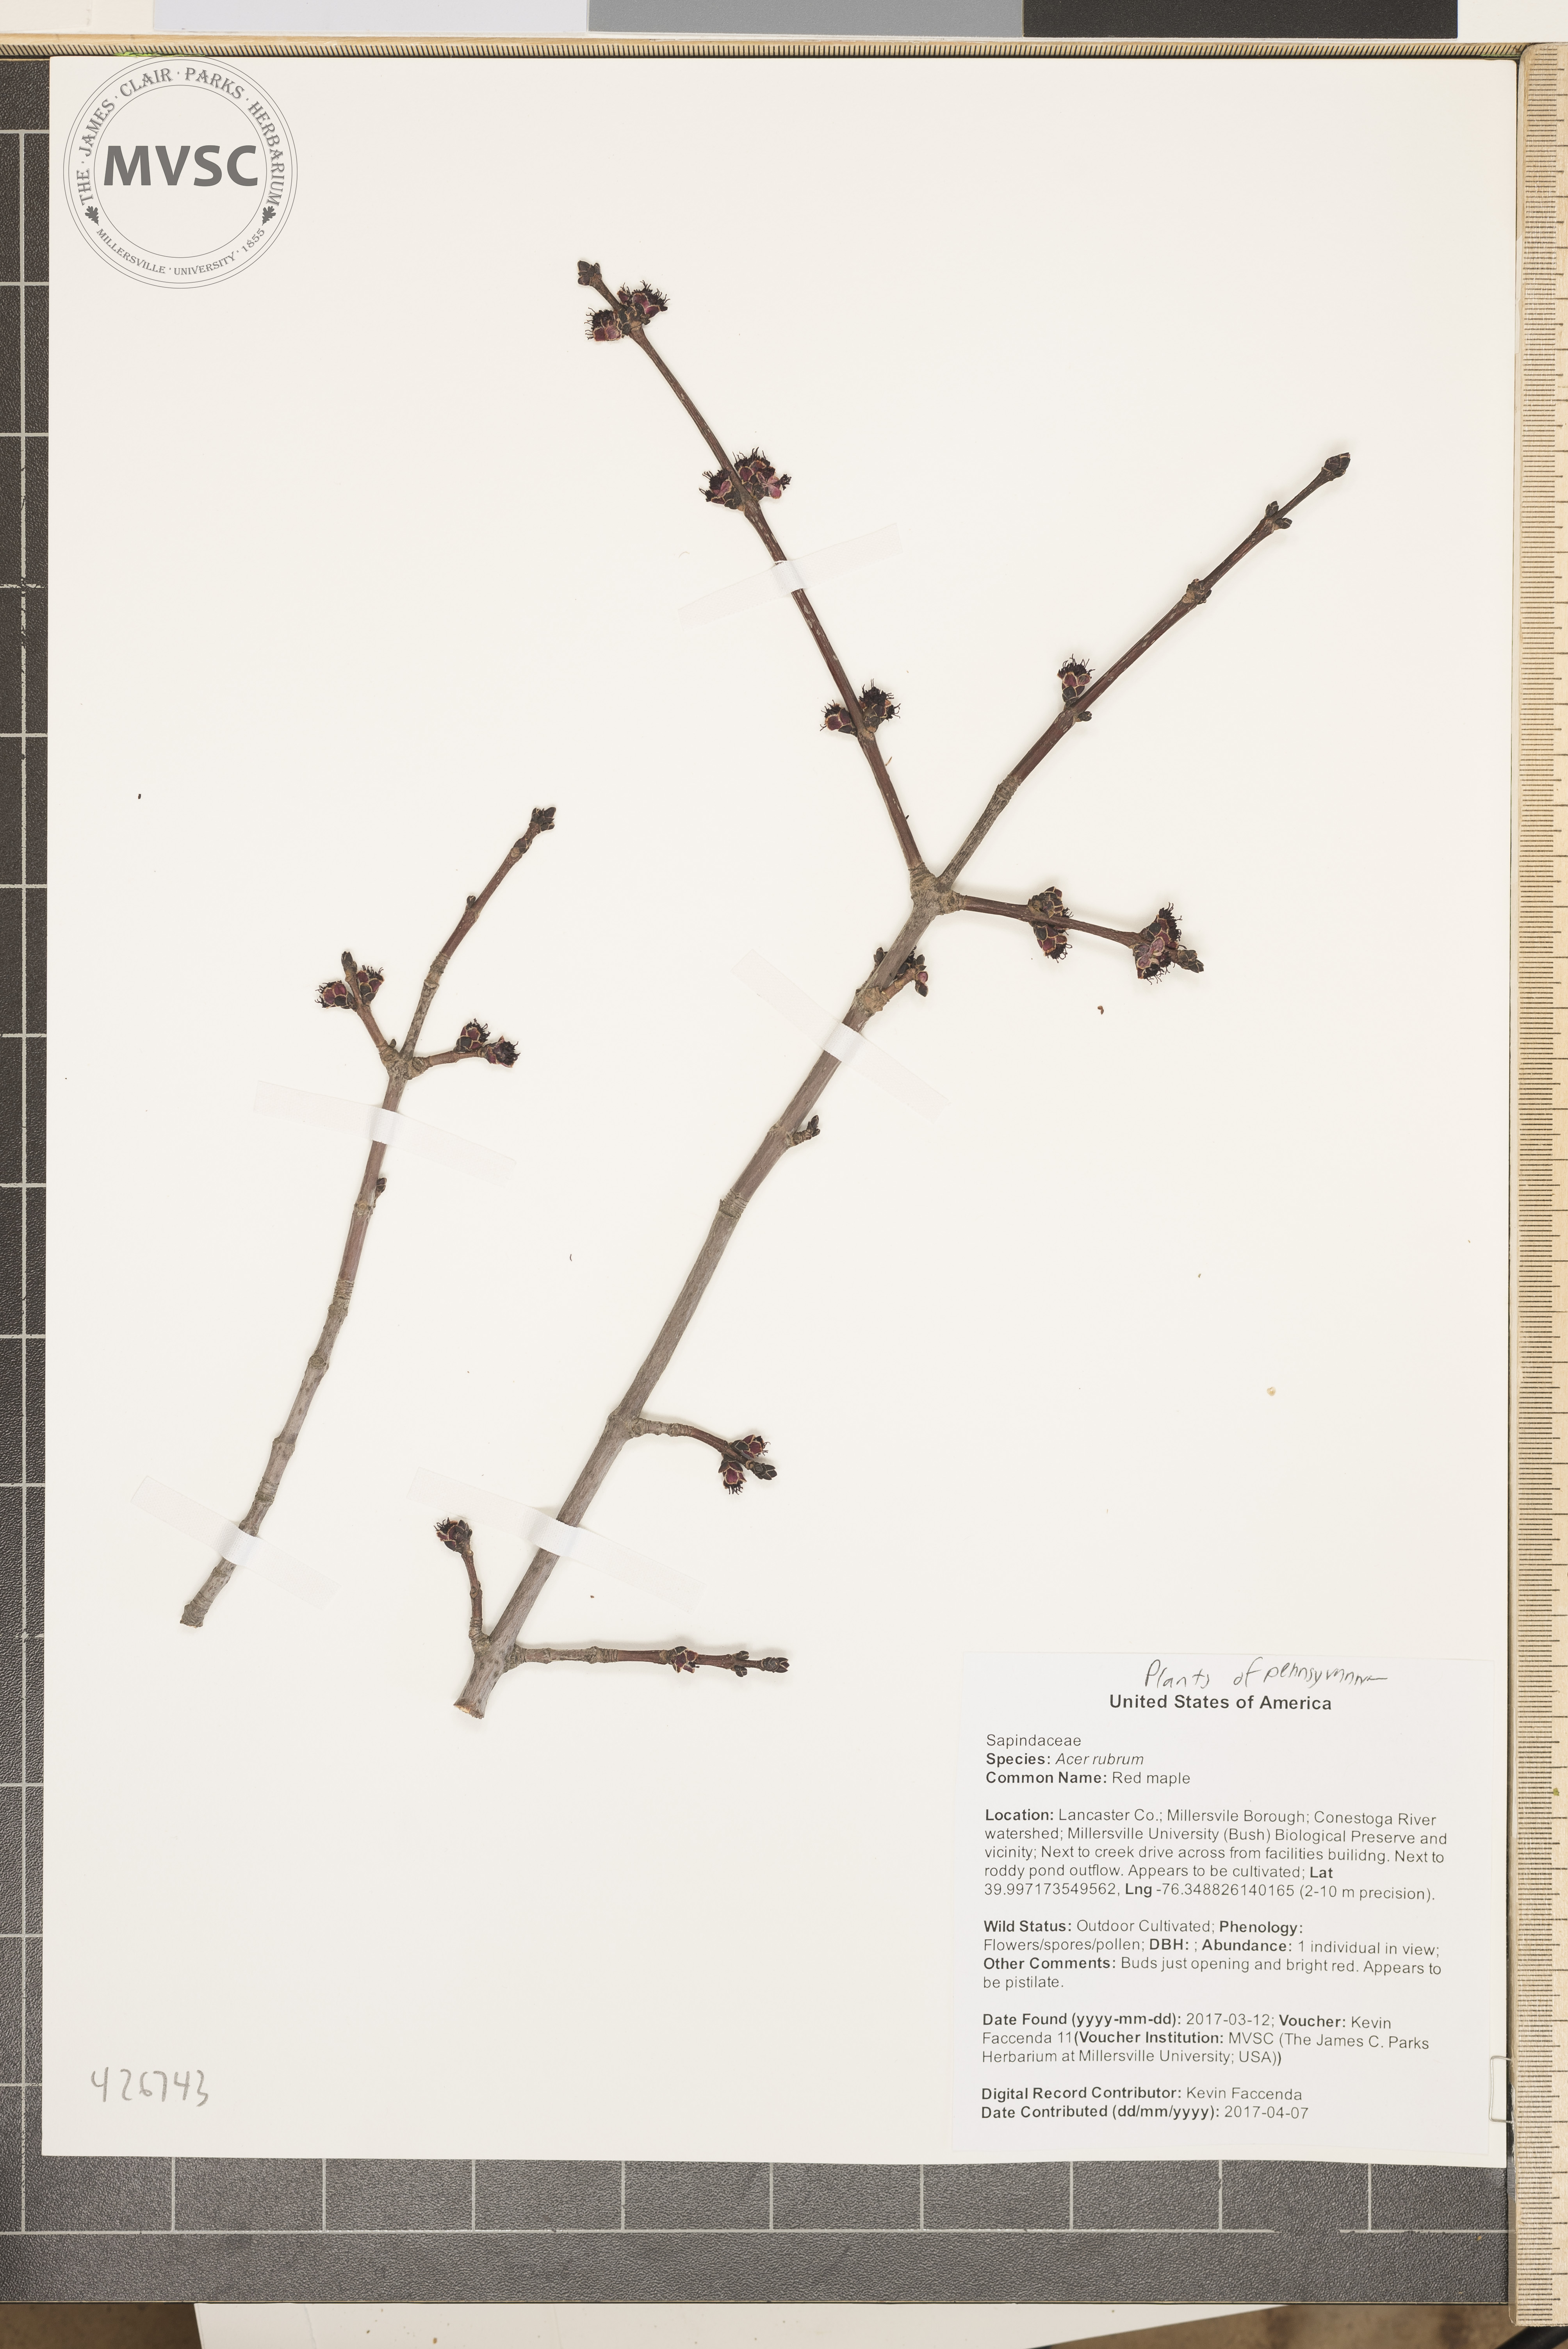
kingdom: Plantae
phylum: Tracheophyta
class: Magnoliopsida
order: Sapindales
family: Sapindaceae
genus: Acer
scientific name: Acer rubrum
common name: Red maple
